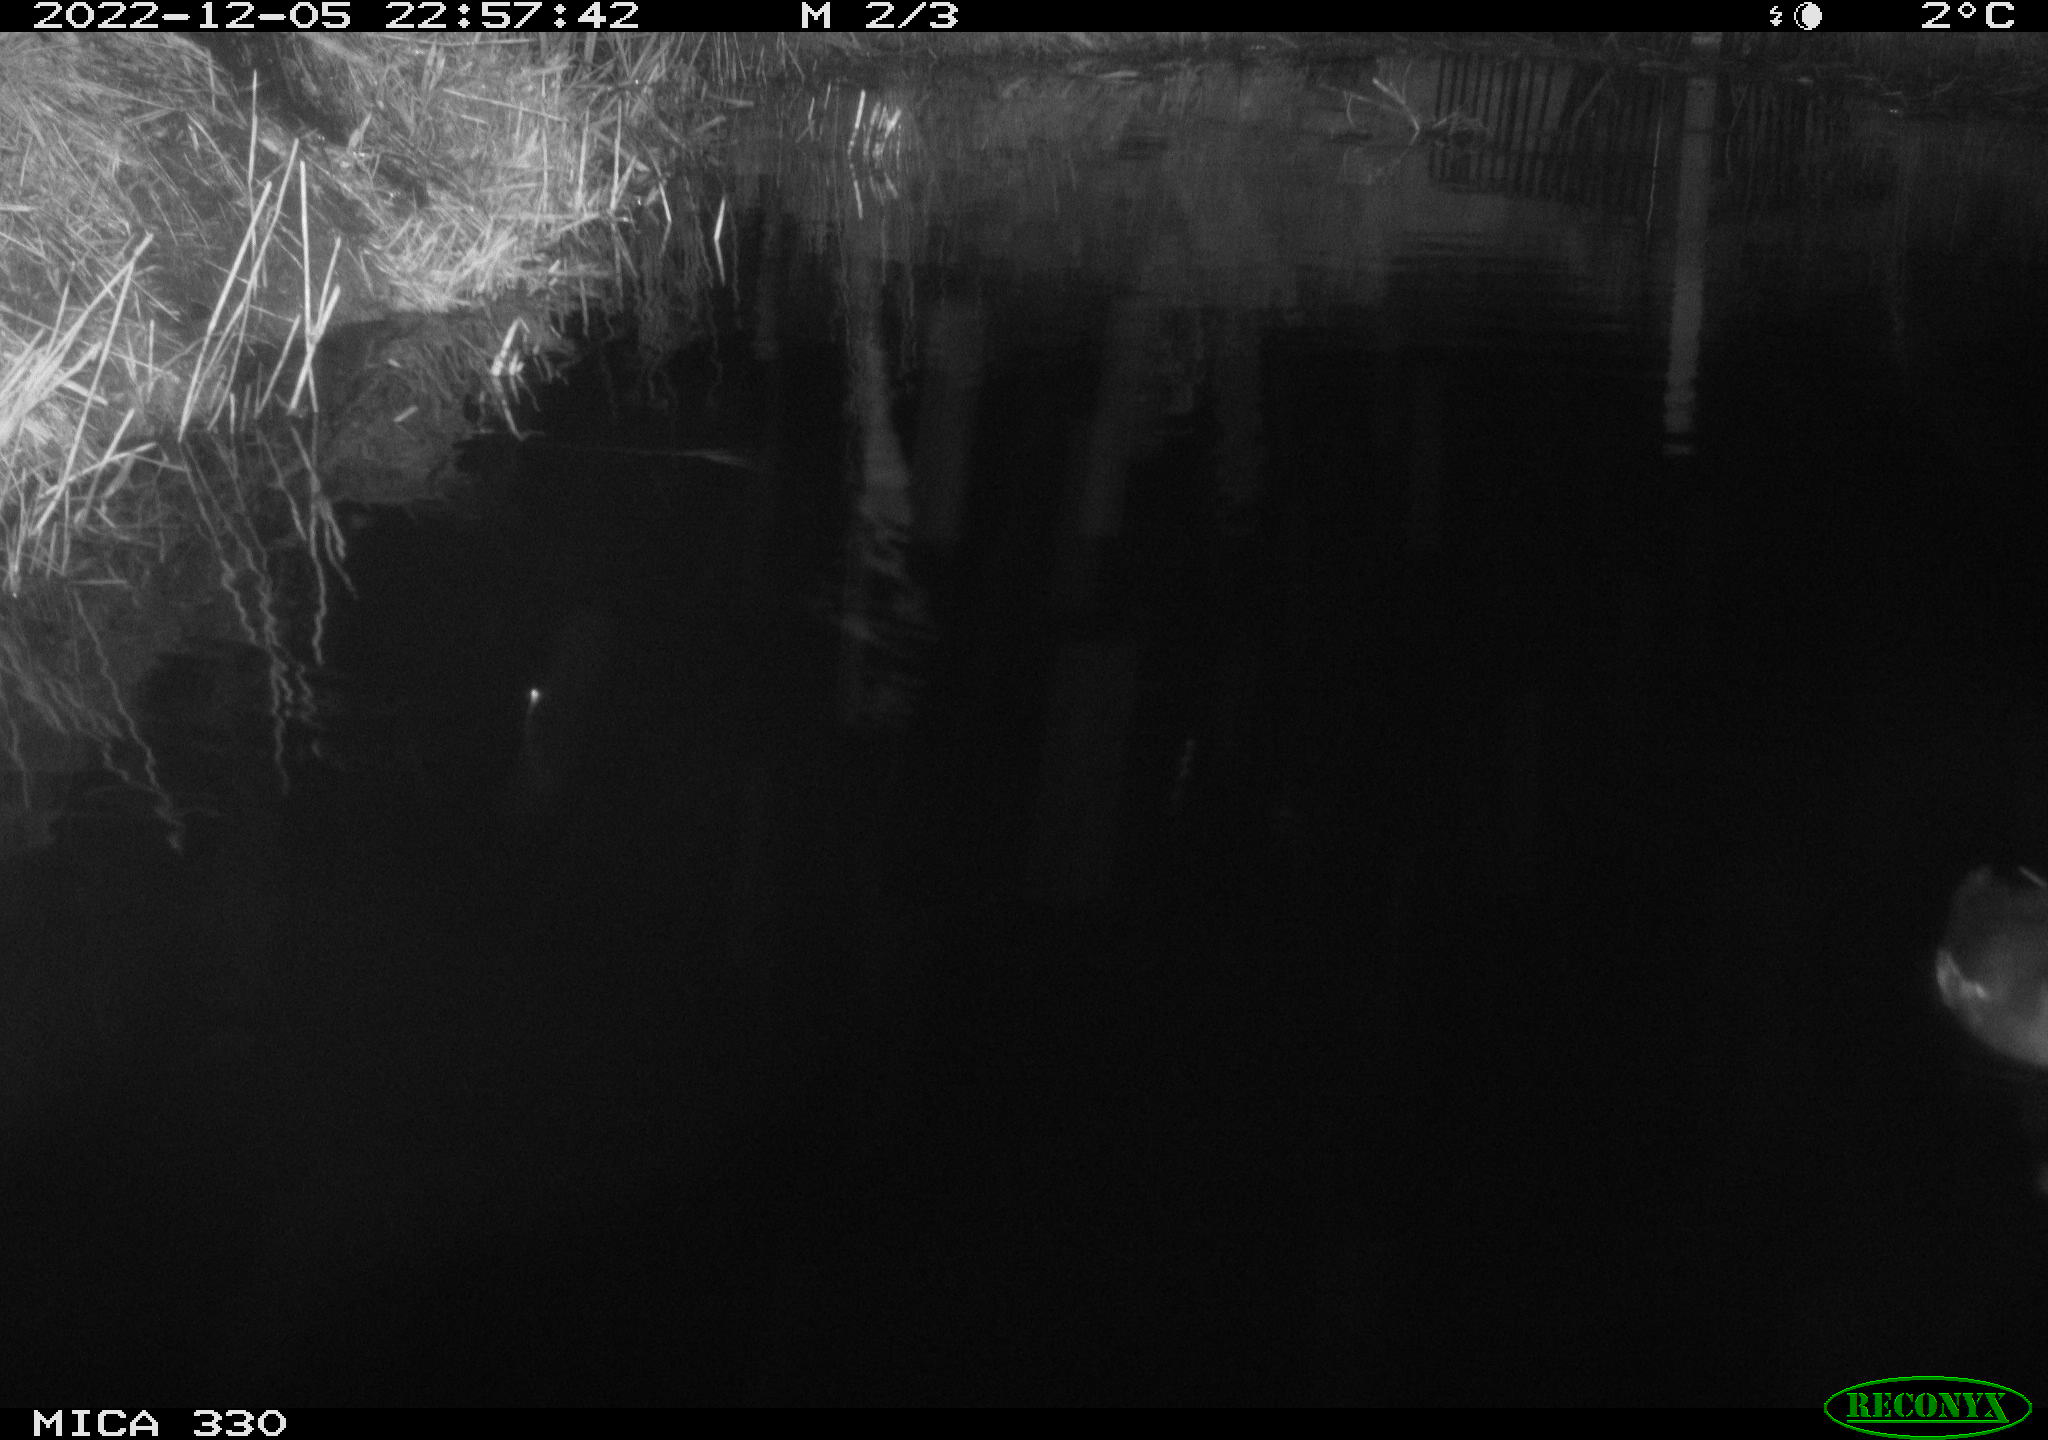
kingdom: Animalia
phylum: Chordata
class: Aves
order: Gruiformes
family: Rallidae
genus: Gallinula
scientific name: Gallinula chloropus
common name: Common moorhen
